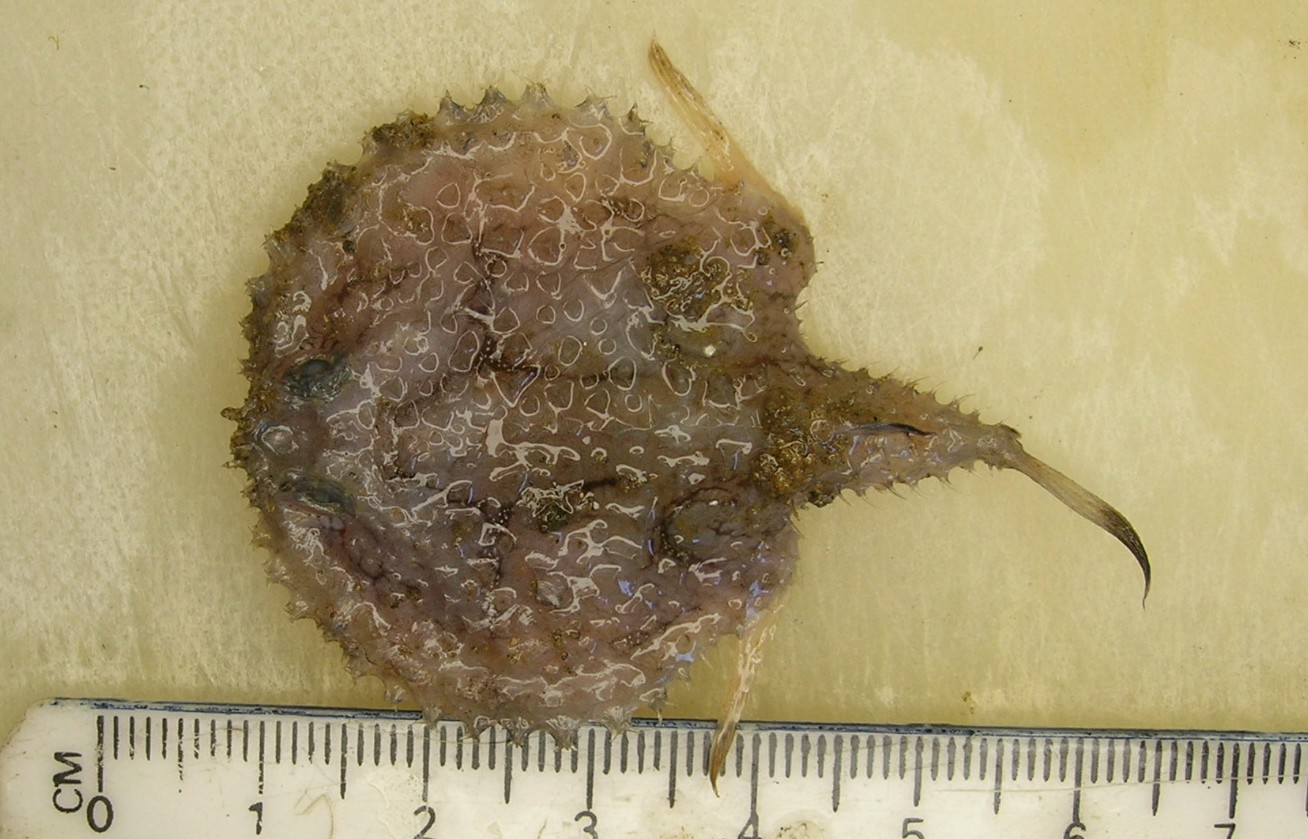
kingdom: Animalia
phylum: Chordata
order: Lophiiformes
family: Ogcocephalidae
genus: Halieutaea
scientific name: Halieutaea fitzsimonsi
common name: Circular seabat
